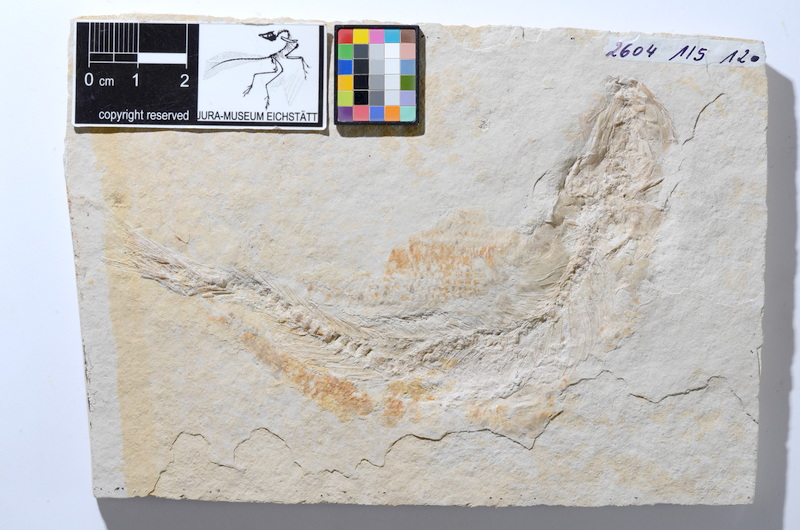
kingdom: Animalia
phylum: Chordata
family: Ascalaboidae
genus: Tharsis
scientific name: Tharsis dubius
